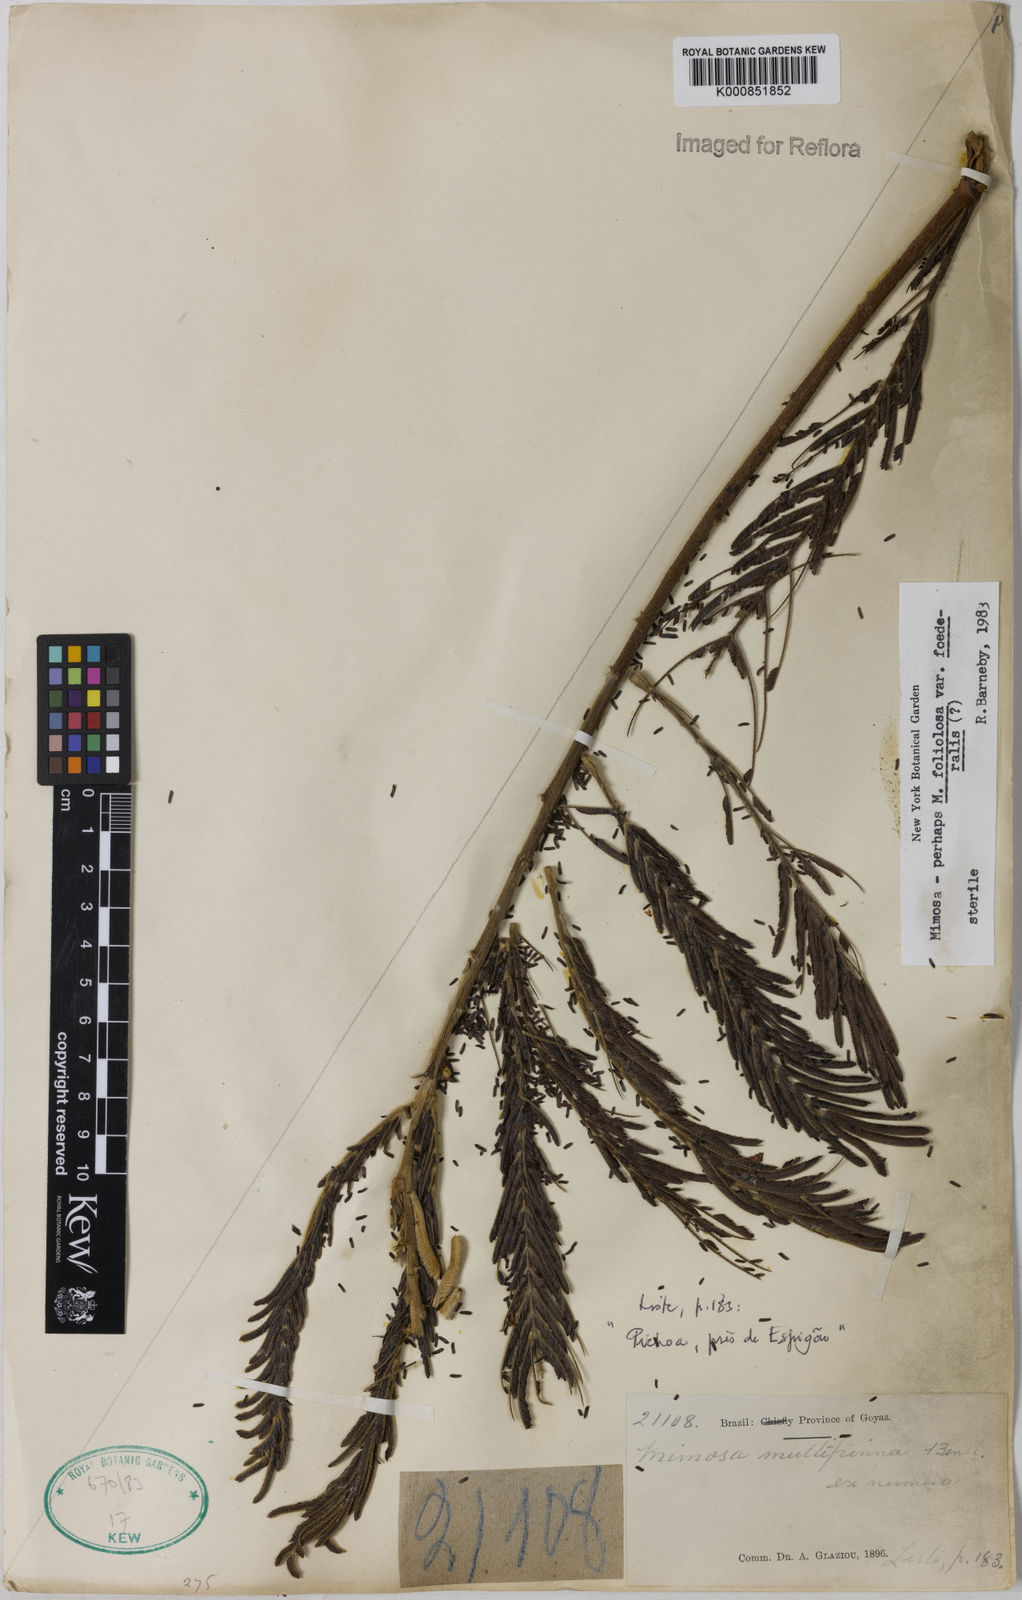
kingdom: Plantae
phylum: Tracheophyta
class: Magnoliopsida
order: Fabales
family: Fabaceae
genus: Mimosa
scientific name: Mimosa foliolosa
